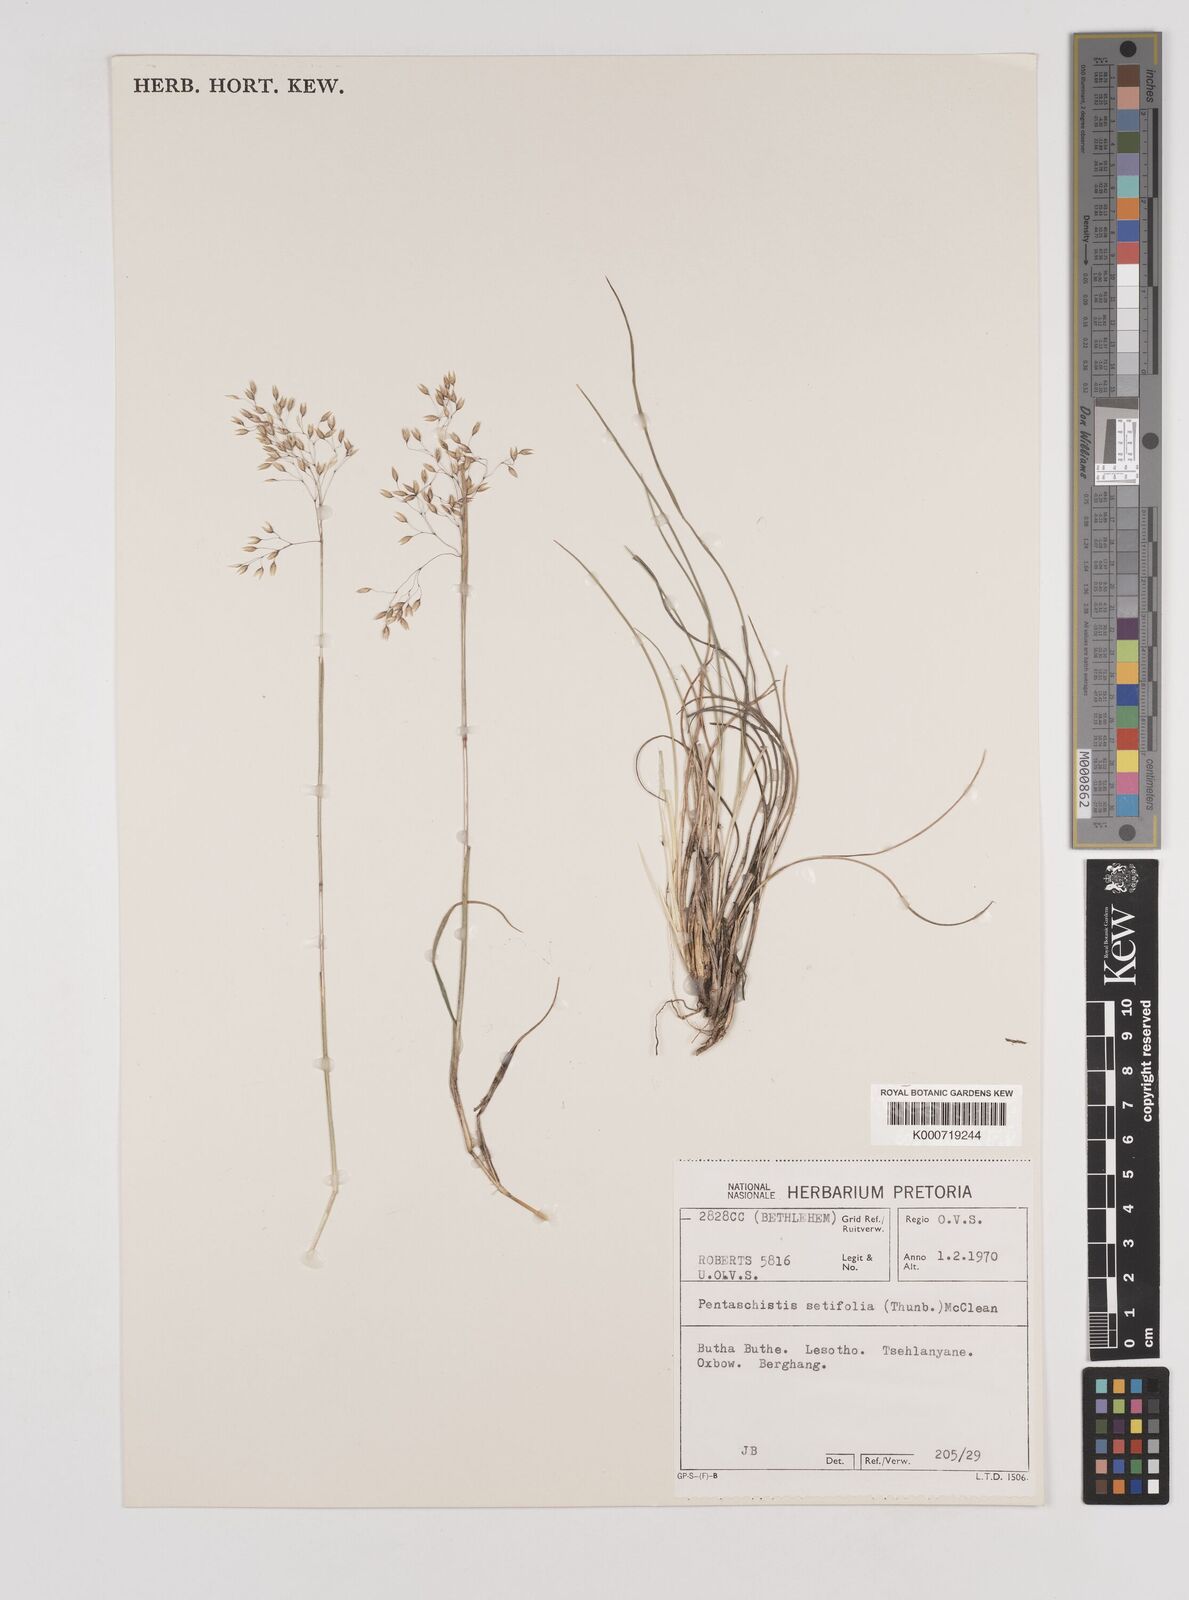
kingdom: Plantae
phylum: Tracheophyta
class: Liliopsida
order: Poales
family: Poaceae
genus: Pentameris
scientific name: Pentameris setifolia
